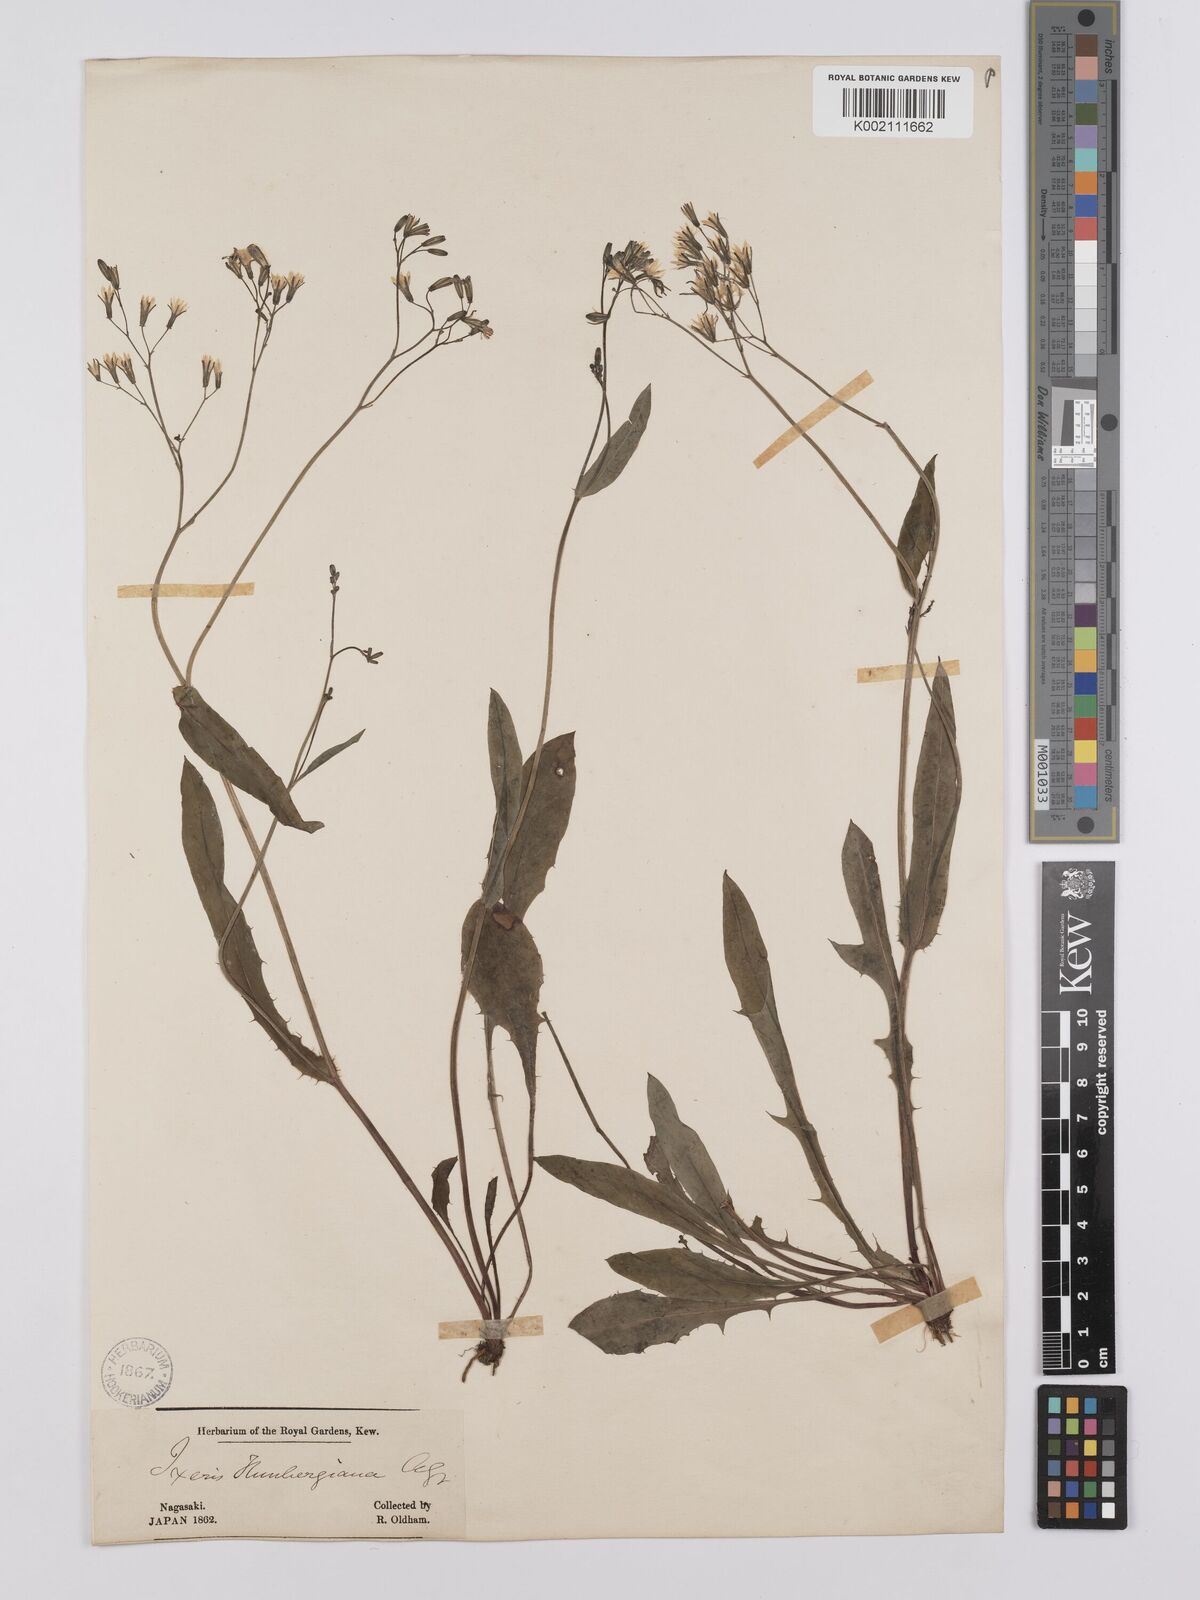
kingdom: Plantae
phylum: Tracheophyta
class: Magnoliopsida
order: Asterales
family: Asteraceae
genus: Ixeridium
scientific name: Ixeridium dentatum
